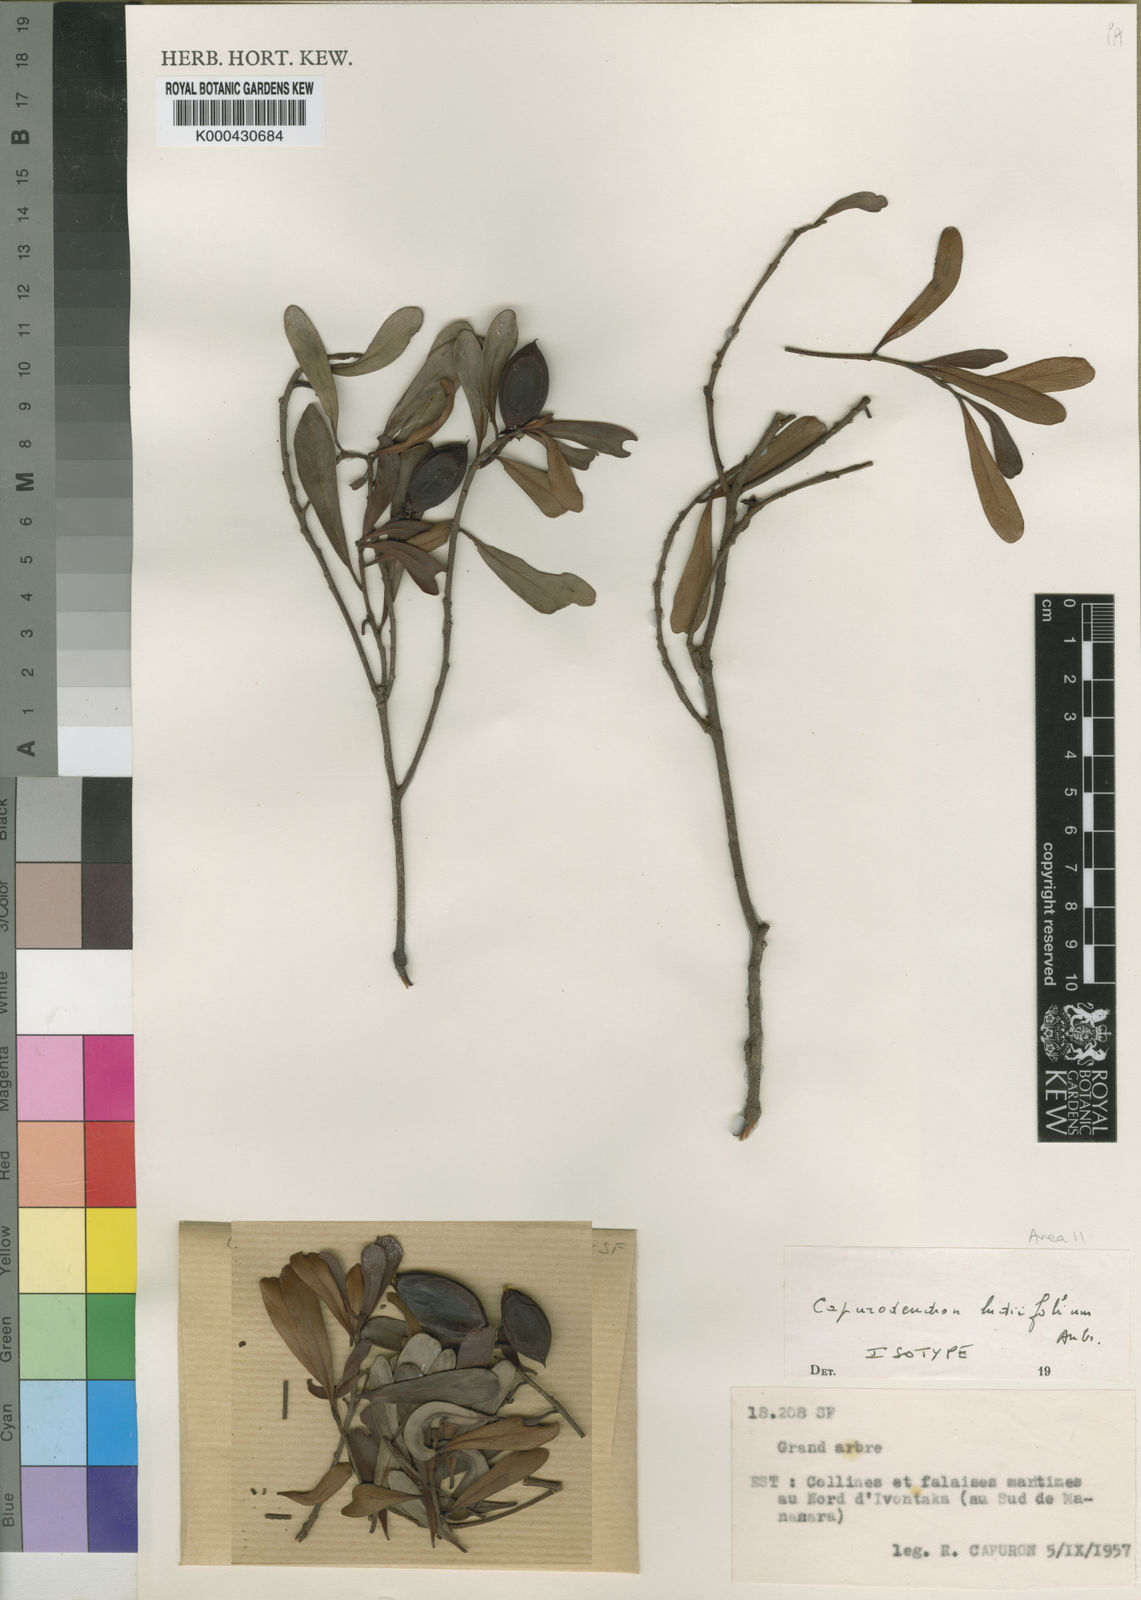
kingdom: Plantae
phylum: Tracheophyta
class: Magnoliopsida
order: Ericales
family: Sapotaceae
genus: Capurodendron
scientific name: Capurodendron
